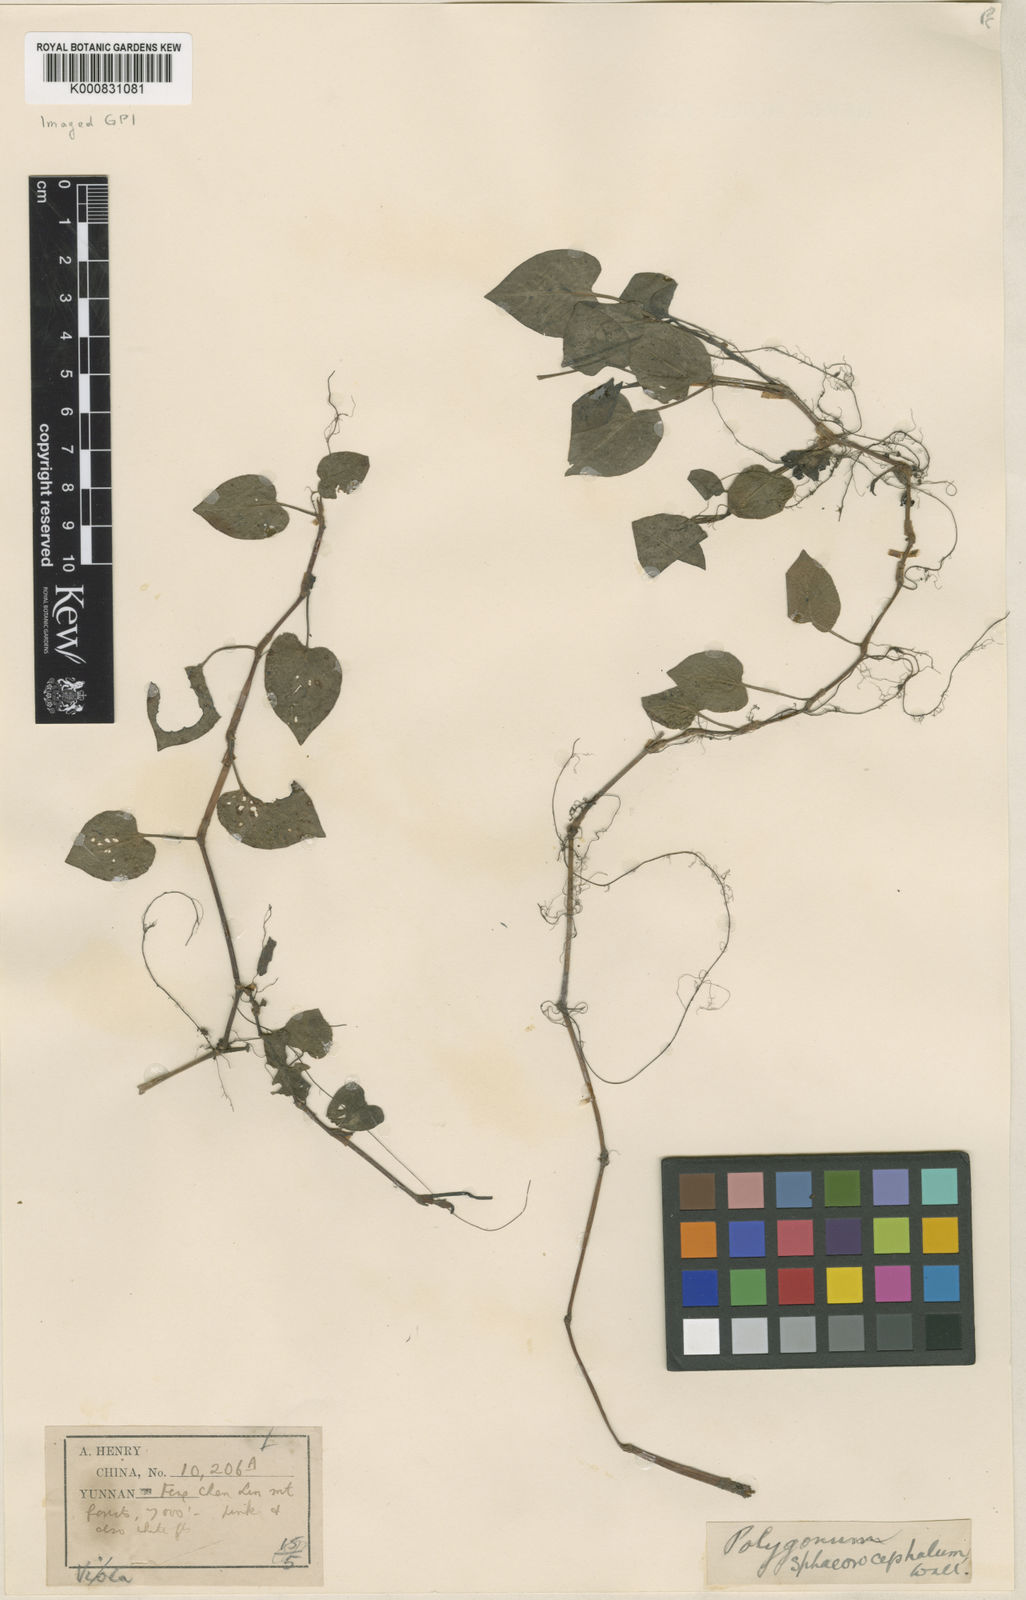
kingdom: Plantae
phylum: Tracheophyta
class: Magnoliopsida
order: Caryophyllales
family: Polygonaceae
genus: Persicaria
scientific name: Persicaria runcinata
